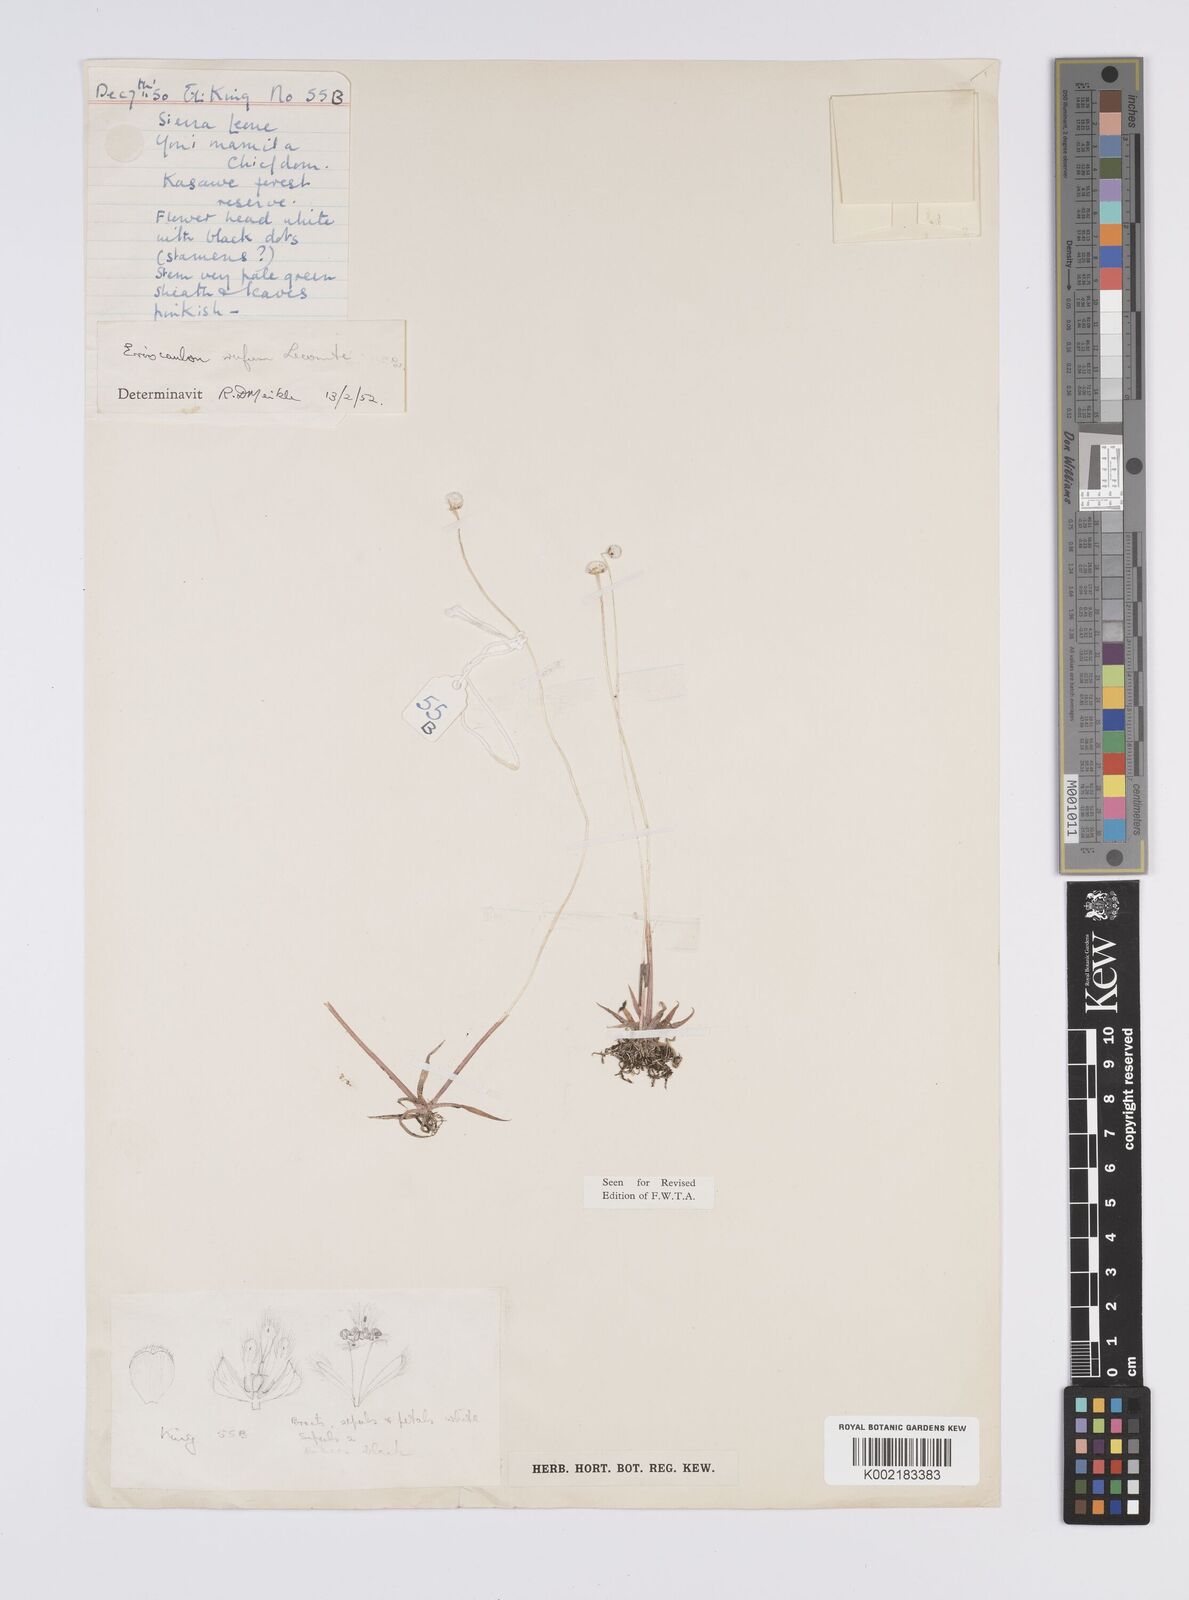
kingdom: Plantae
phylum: Tracheophyta
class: Liliopsida
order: Poales
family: Eriocaulaceae
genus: Eriocaulon
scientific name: Eriocaulon rufum
